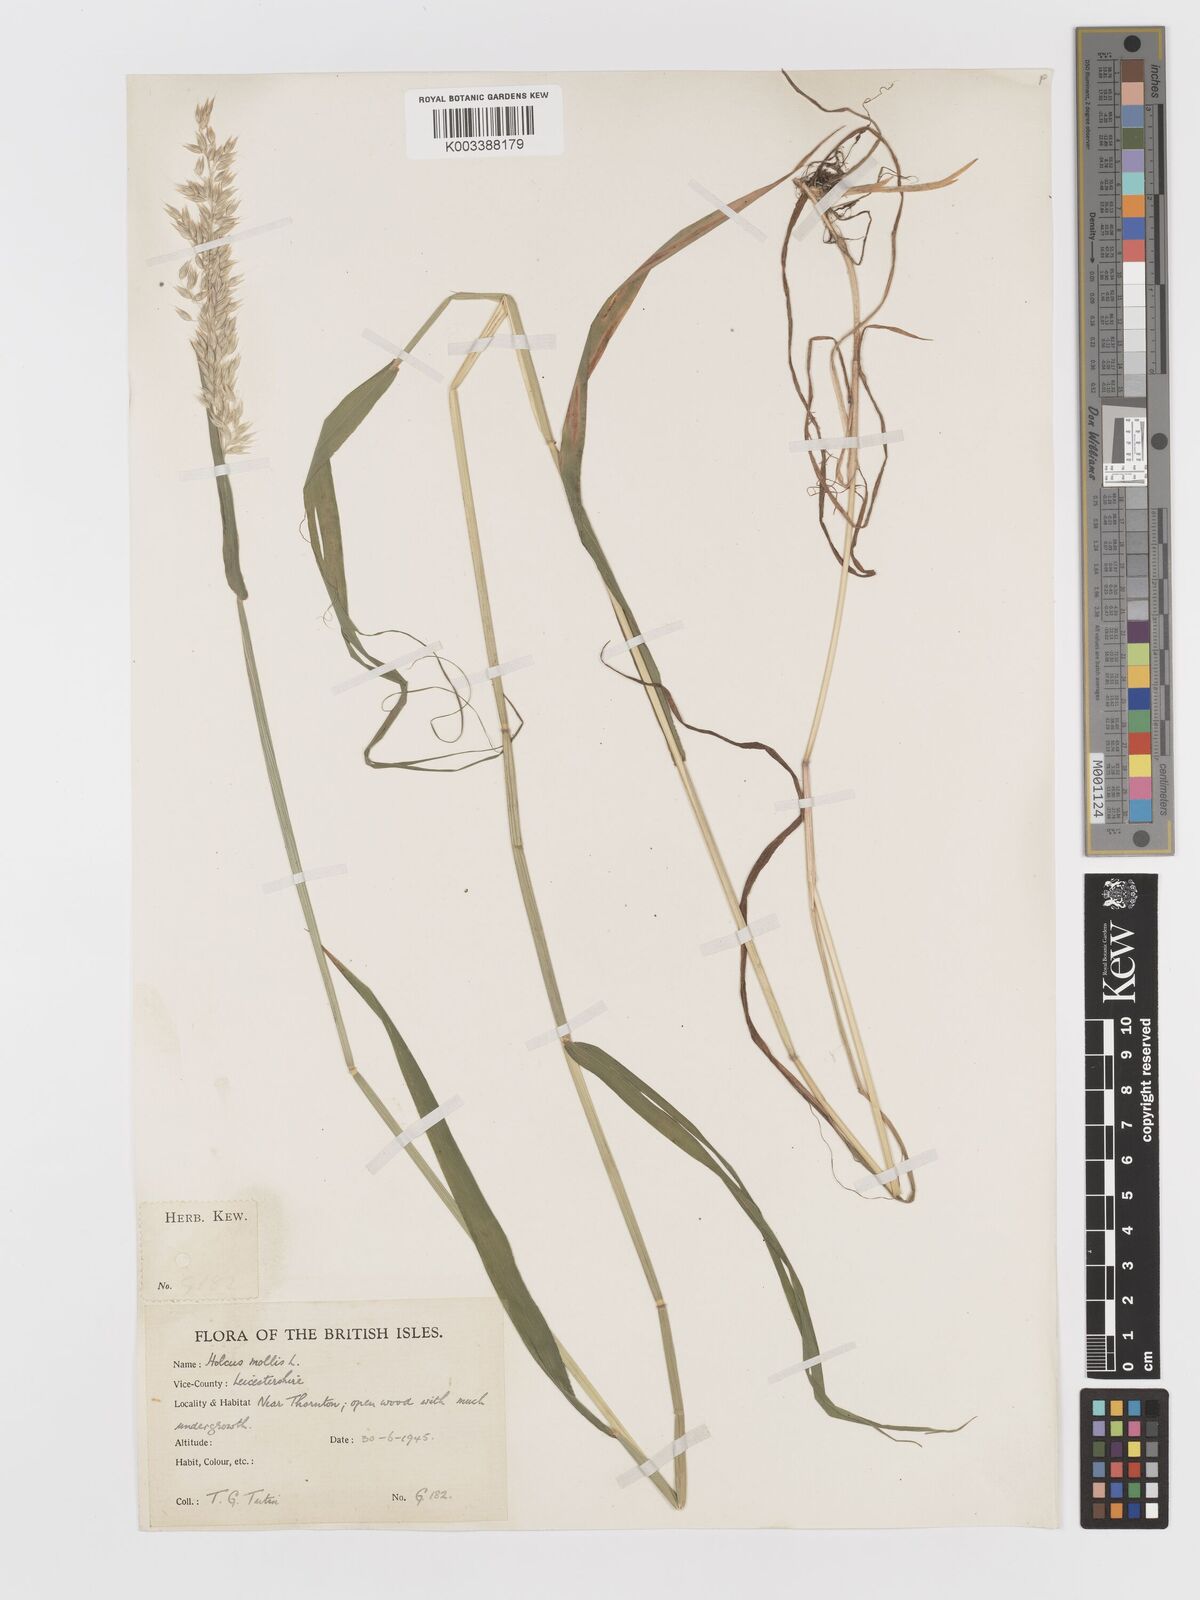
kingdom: Plantae
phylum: Tracheophyta
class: Liliopsida
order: Poales
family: Poaceae
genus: Holcus
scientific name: Holcus mollis
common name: Creeping velvetgrass
